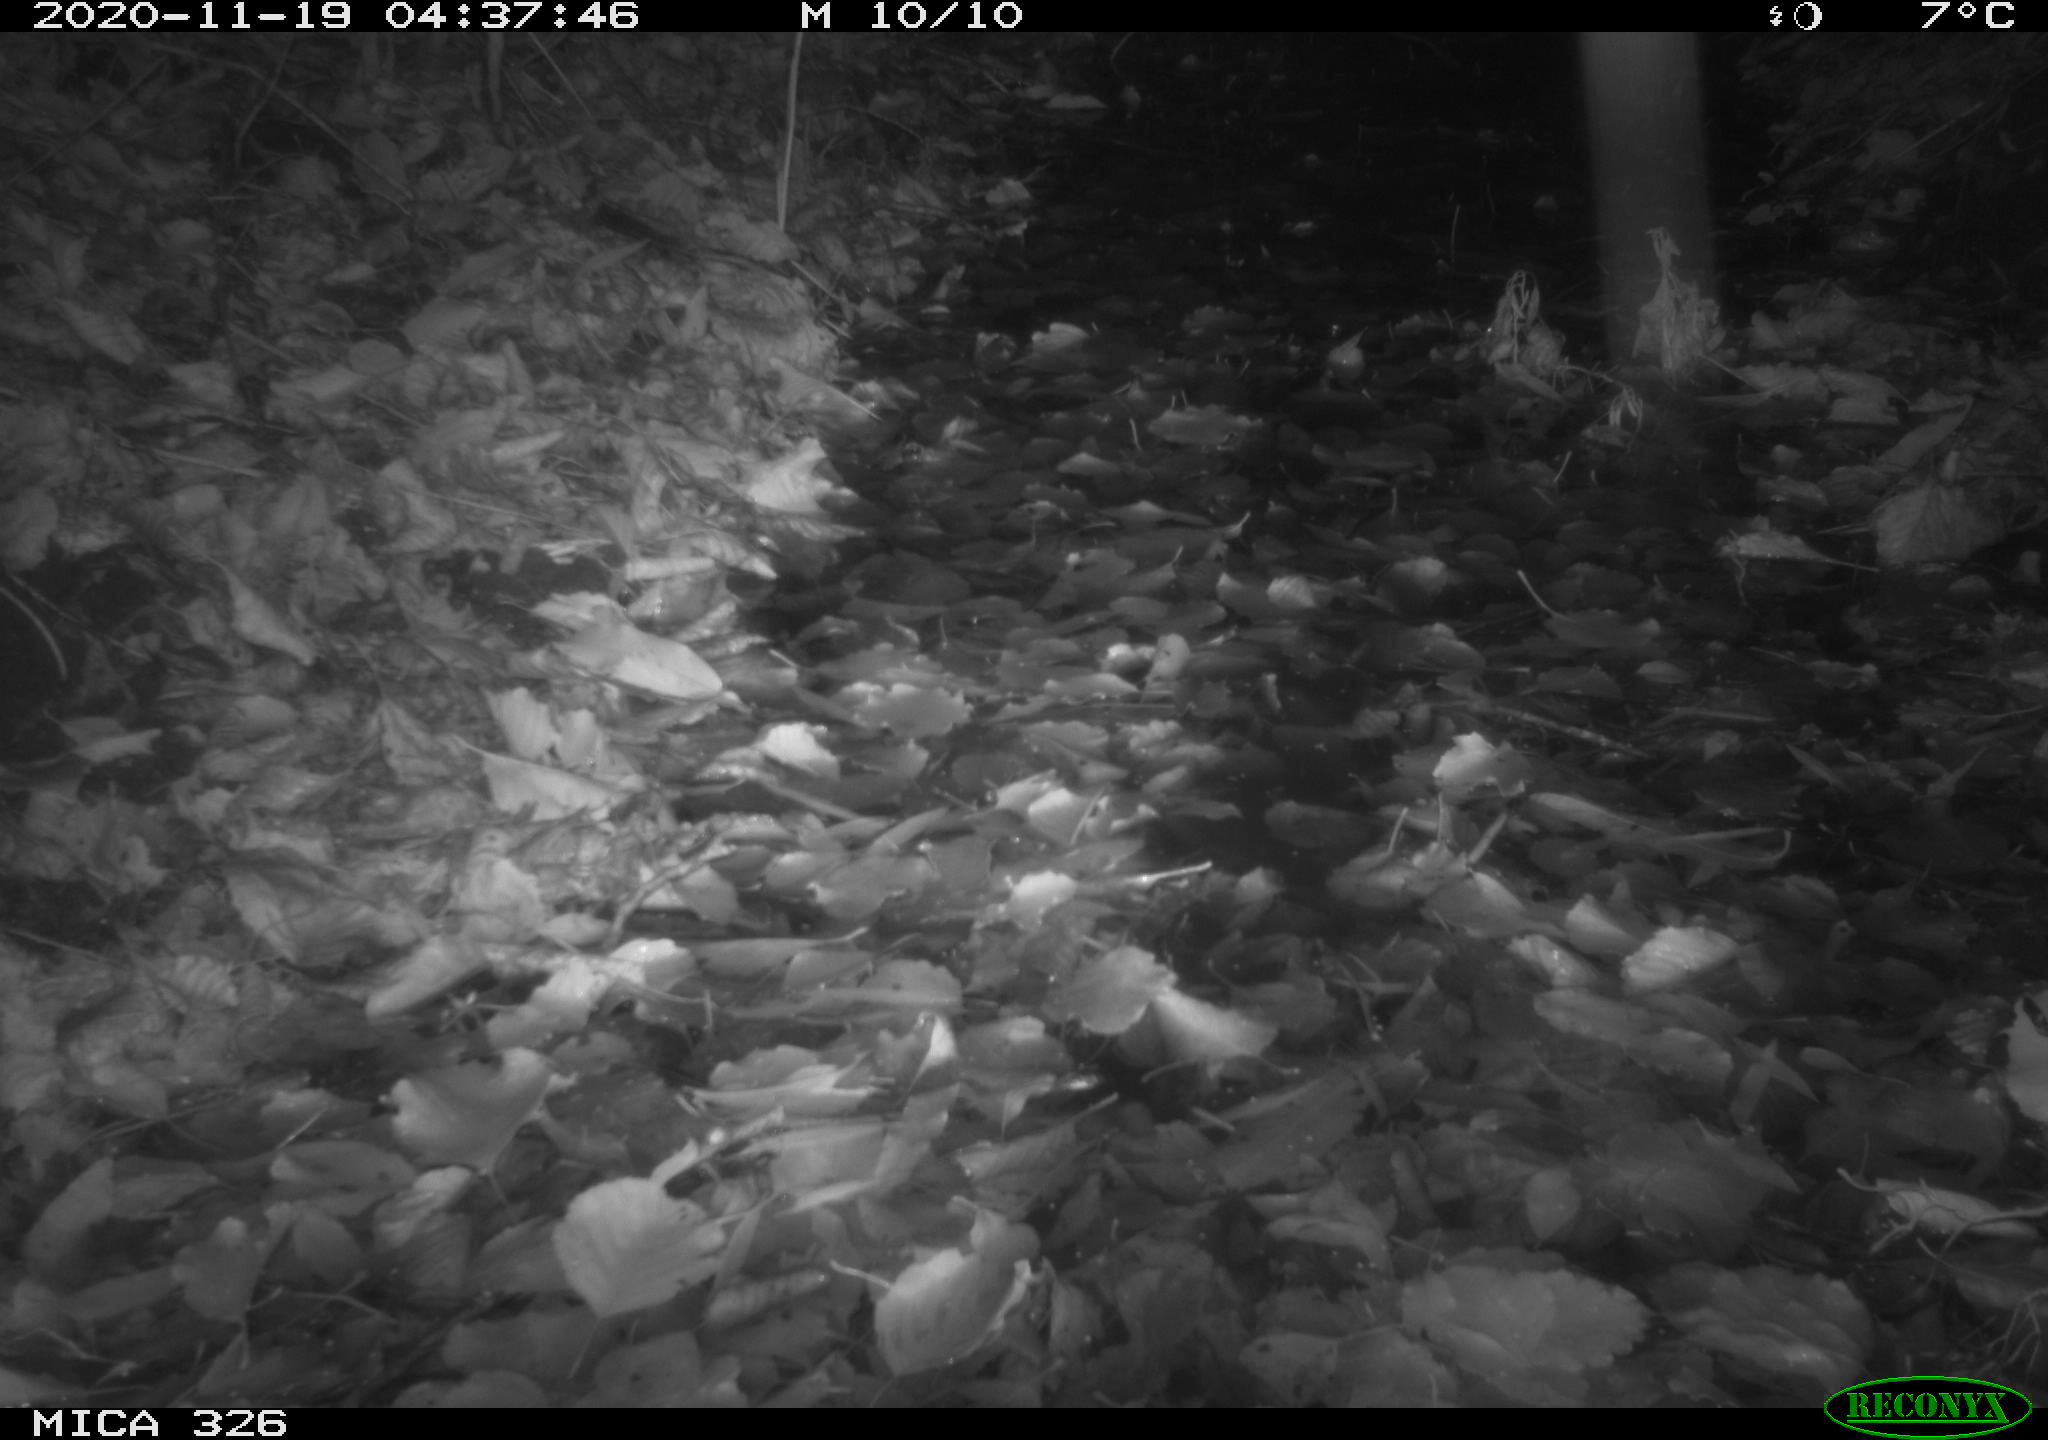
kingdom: Animalia
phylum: Chordata
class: Mammalia
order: Carnivora
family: Mustelidae
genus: Lutra
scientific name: Lutra lutra
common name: European otter
